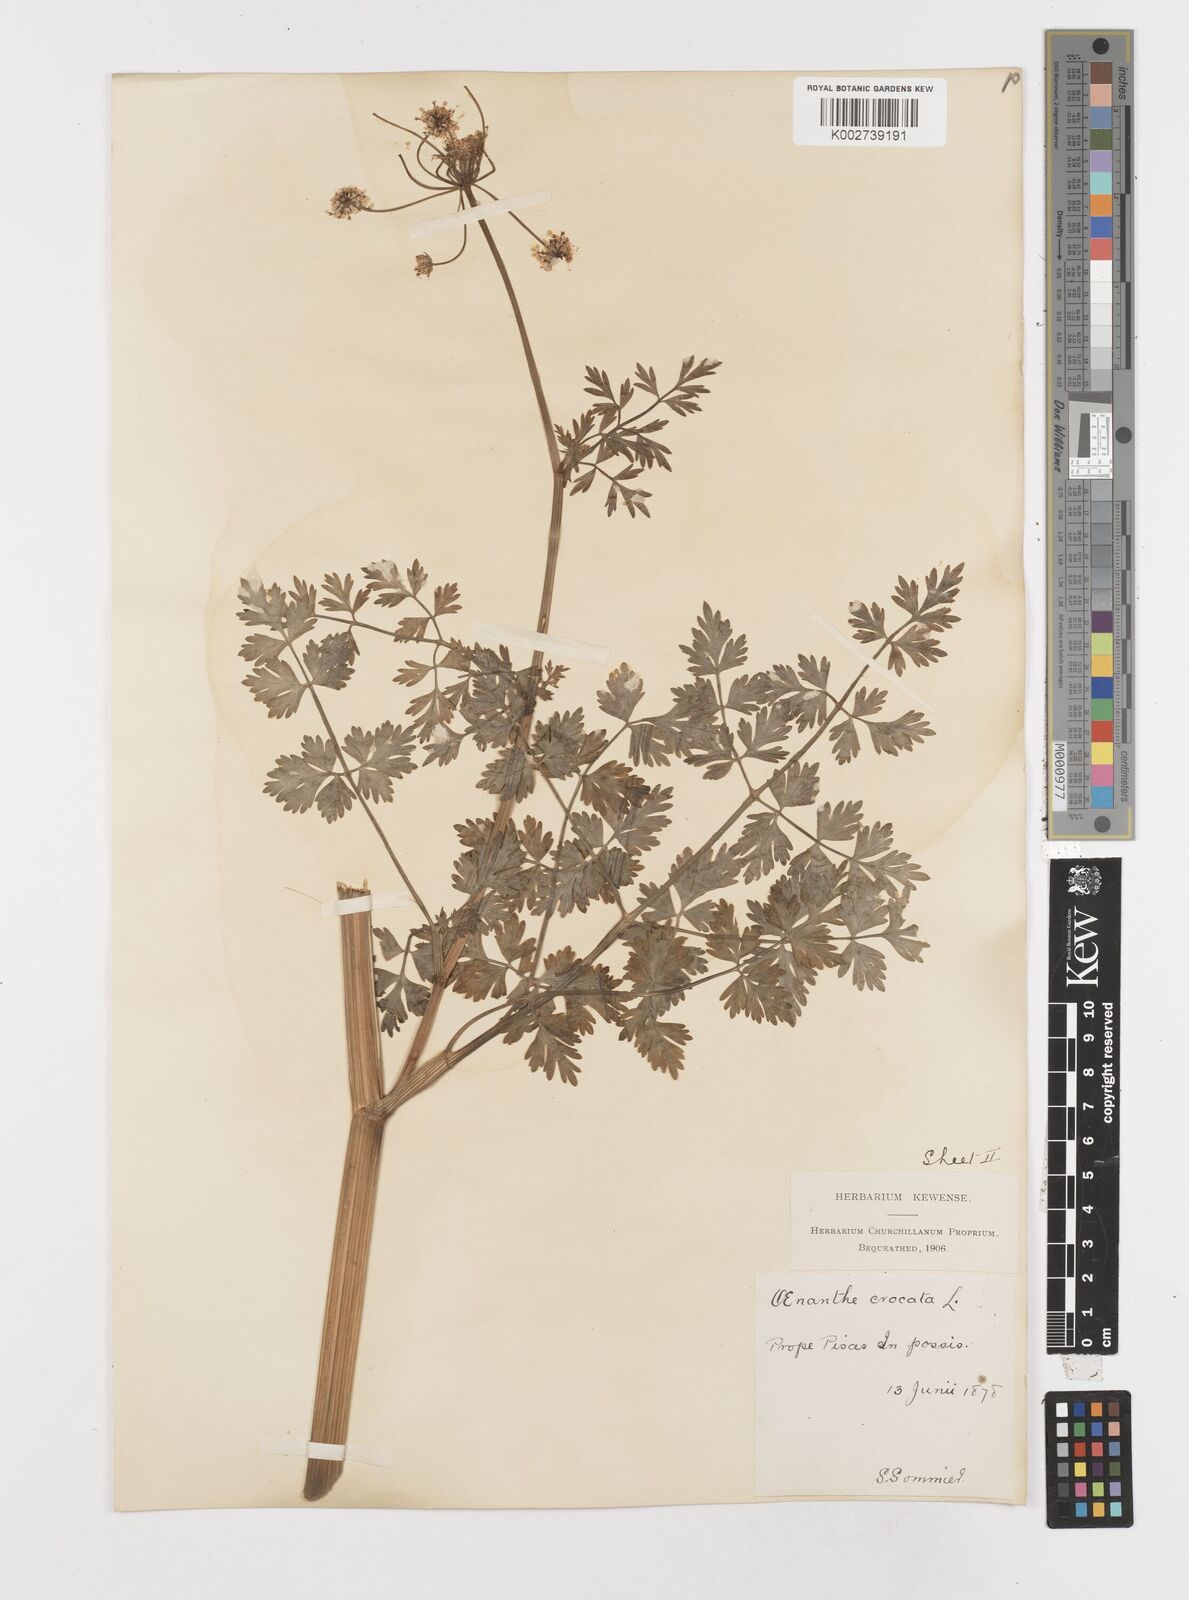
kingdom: Plantae
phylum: Tracheophyta
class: Magnoliopsida
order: Apiales
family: Apiaceae
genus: Oenanthe
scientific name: Oenanthe crocata
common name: Hemlock water-dropwort
